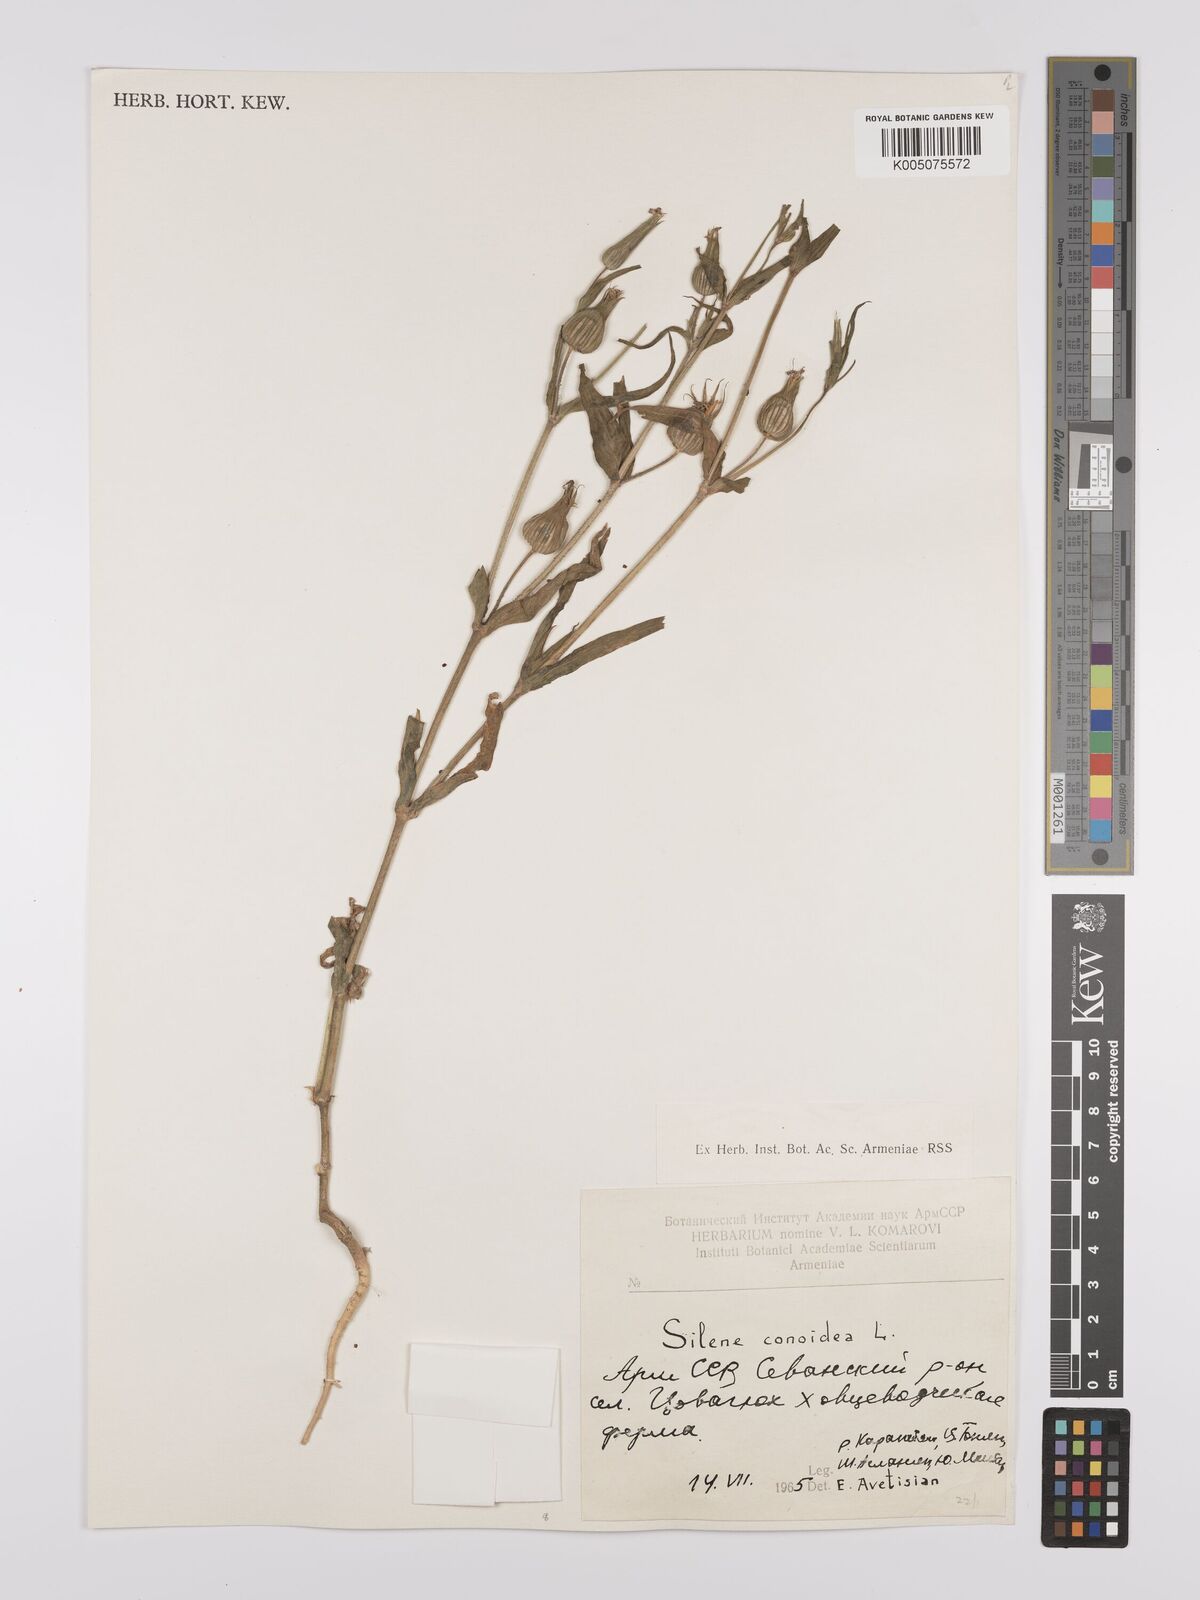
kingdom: Plantae
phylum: Tracheophyta
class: Magnoliopsida
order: Caryophyllales
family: Caryophyllaceae
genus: Silene
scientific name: Silene
